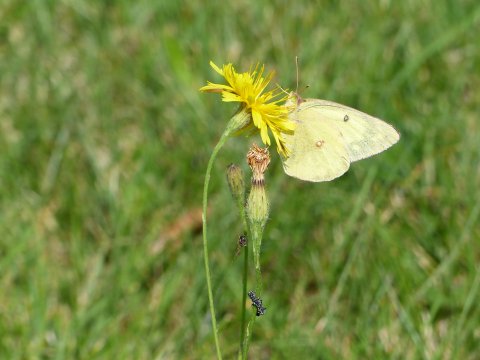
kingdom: Animalia
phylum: Arthropoda
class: Insecta
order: Lepidoptera
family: Pieridae
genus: Colias
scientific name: Colias philodice
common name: Clouded Sulphur
